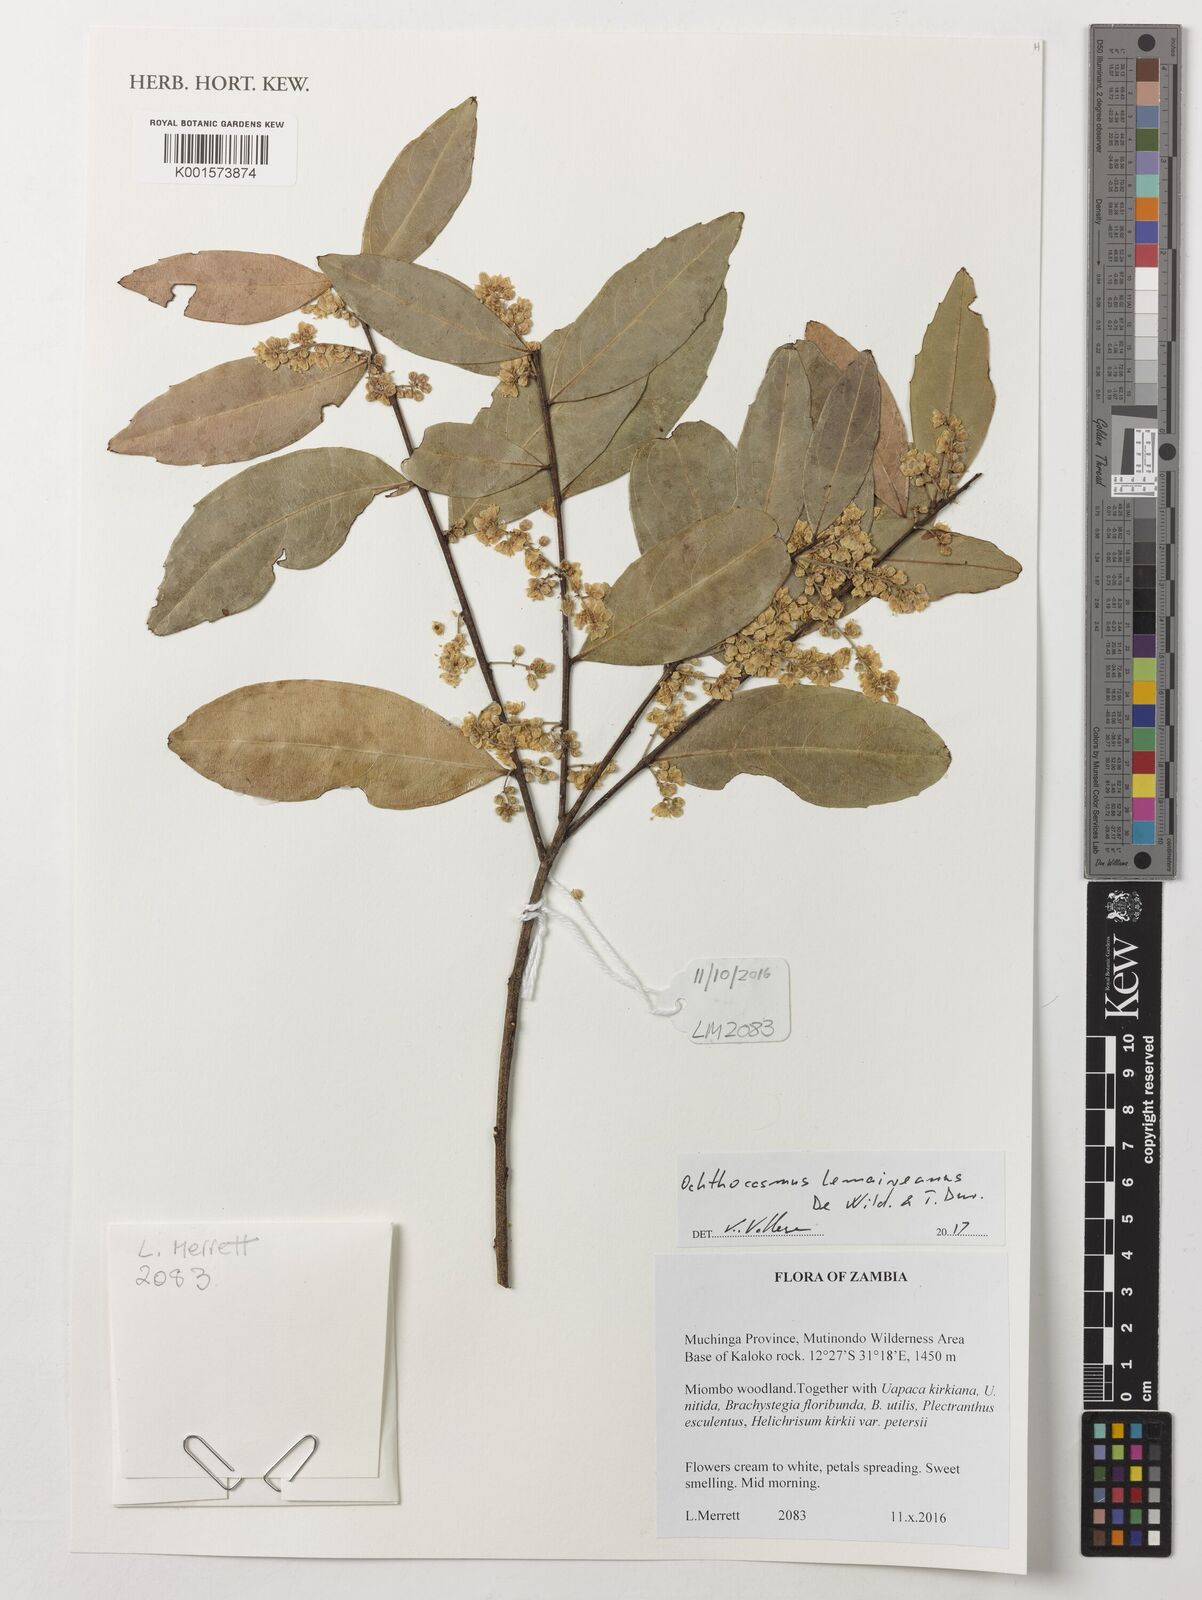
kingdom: Plantae
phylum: Tracheophyta
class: Magnoliopsida
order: Malpighiales
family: Ixonanthaceae
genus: Phyllocosmus
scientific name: Phyllocosmus lemaireanus
